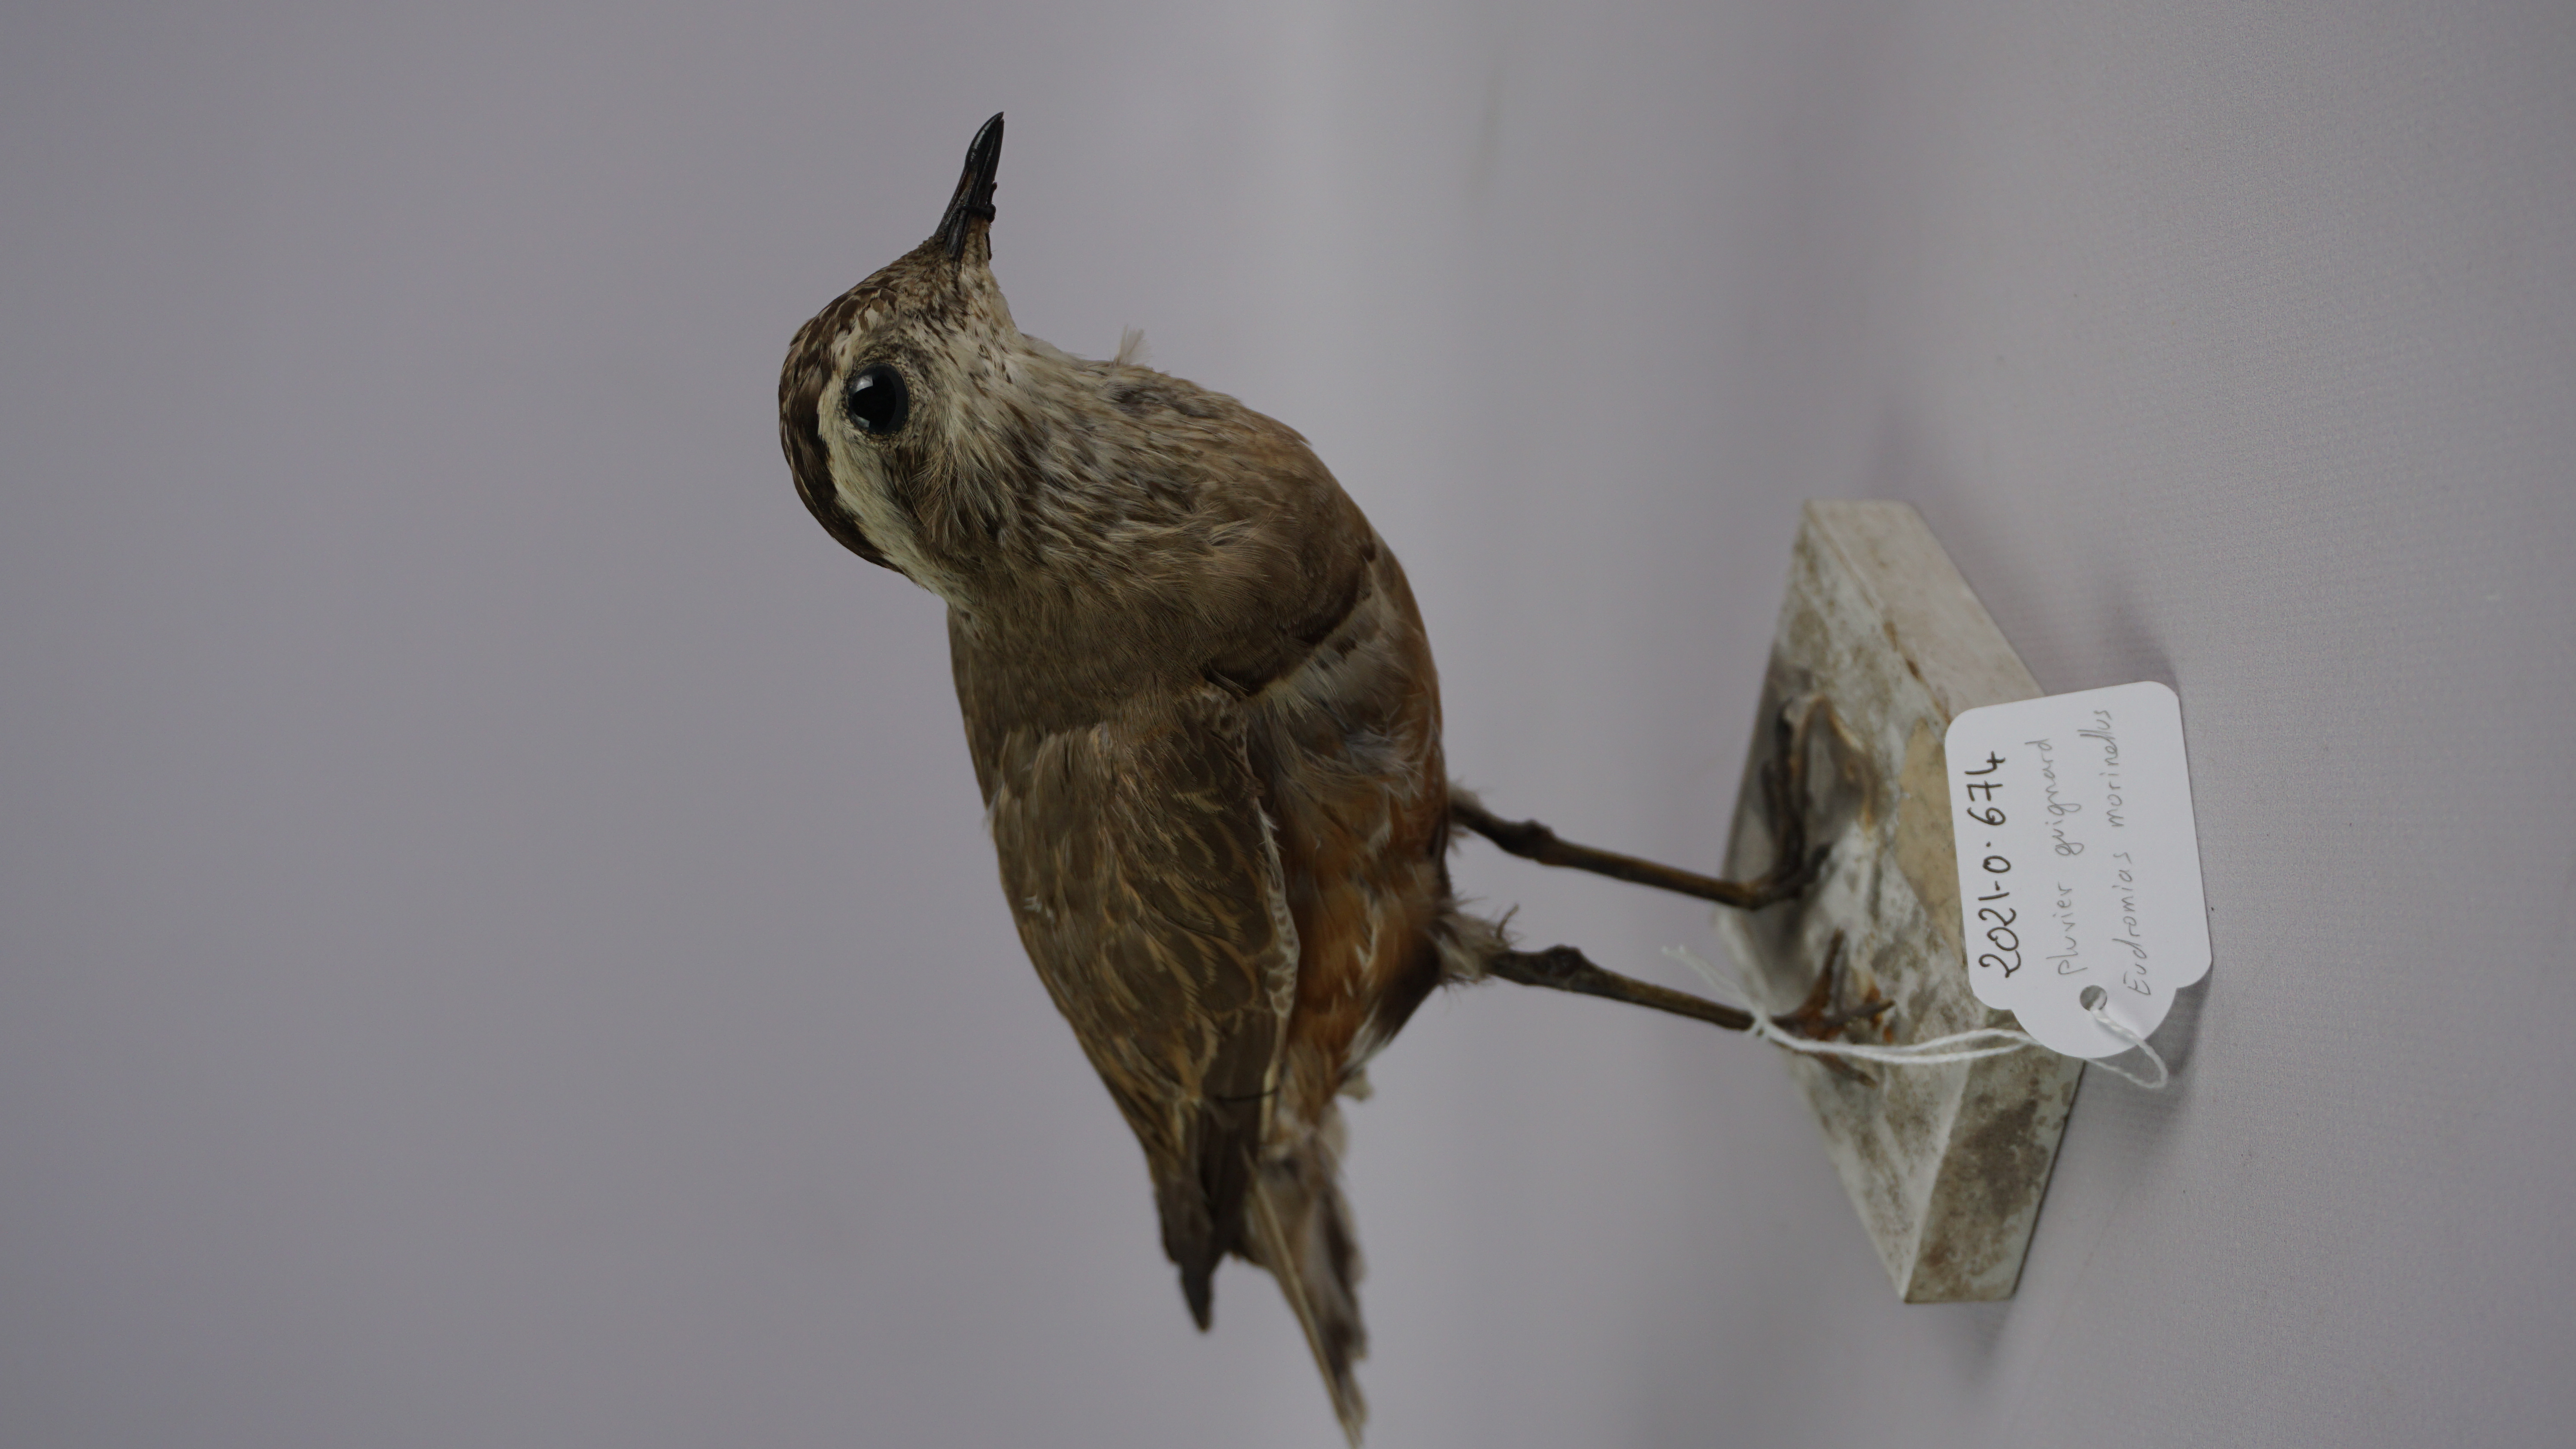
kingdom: Animalia
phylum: Chordata
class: Aves
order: Charadriiformes
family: Charadriidae
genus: Charadrius
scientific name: Charadrius morinellus
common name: Eurasian dotterel
